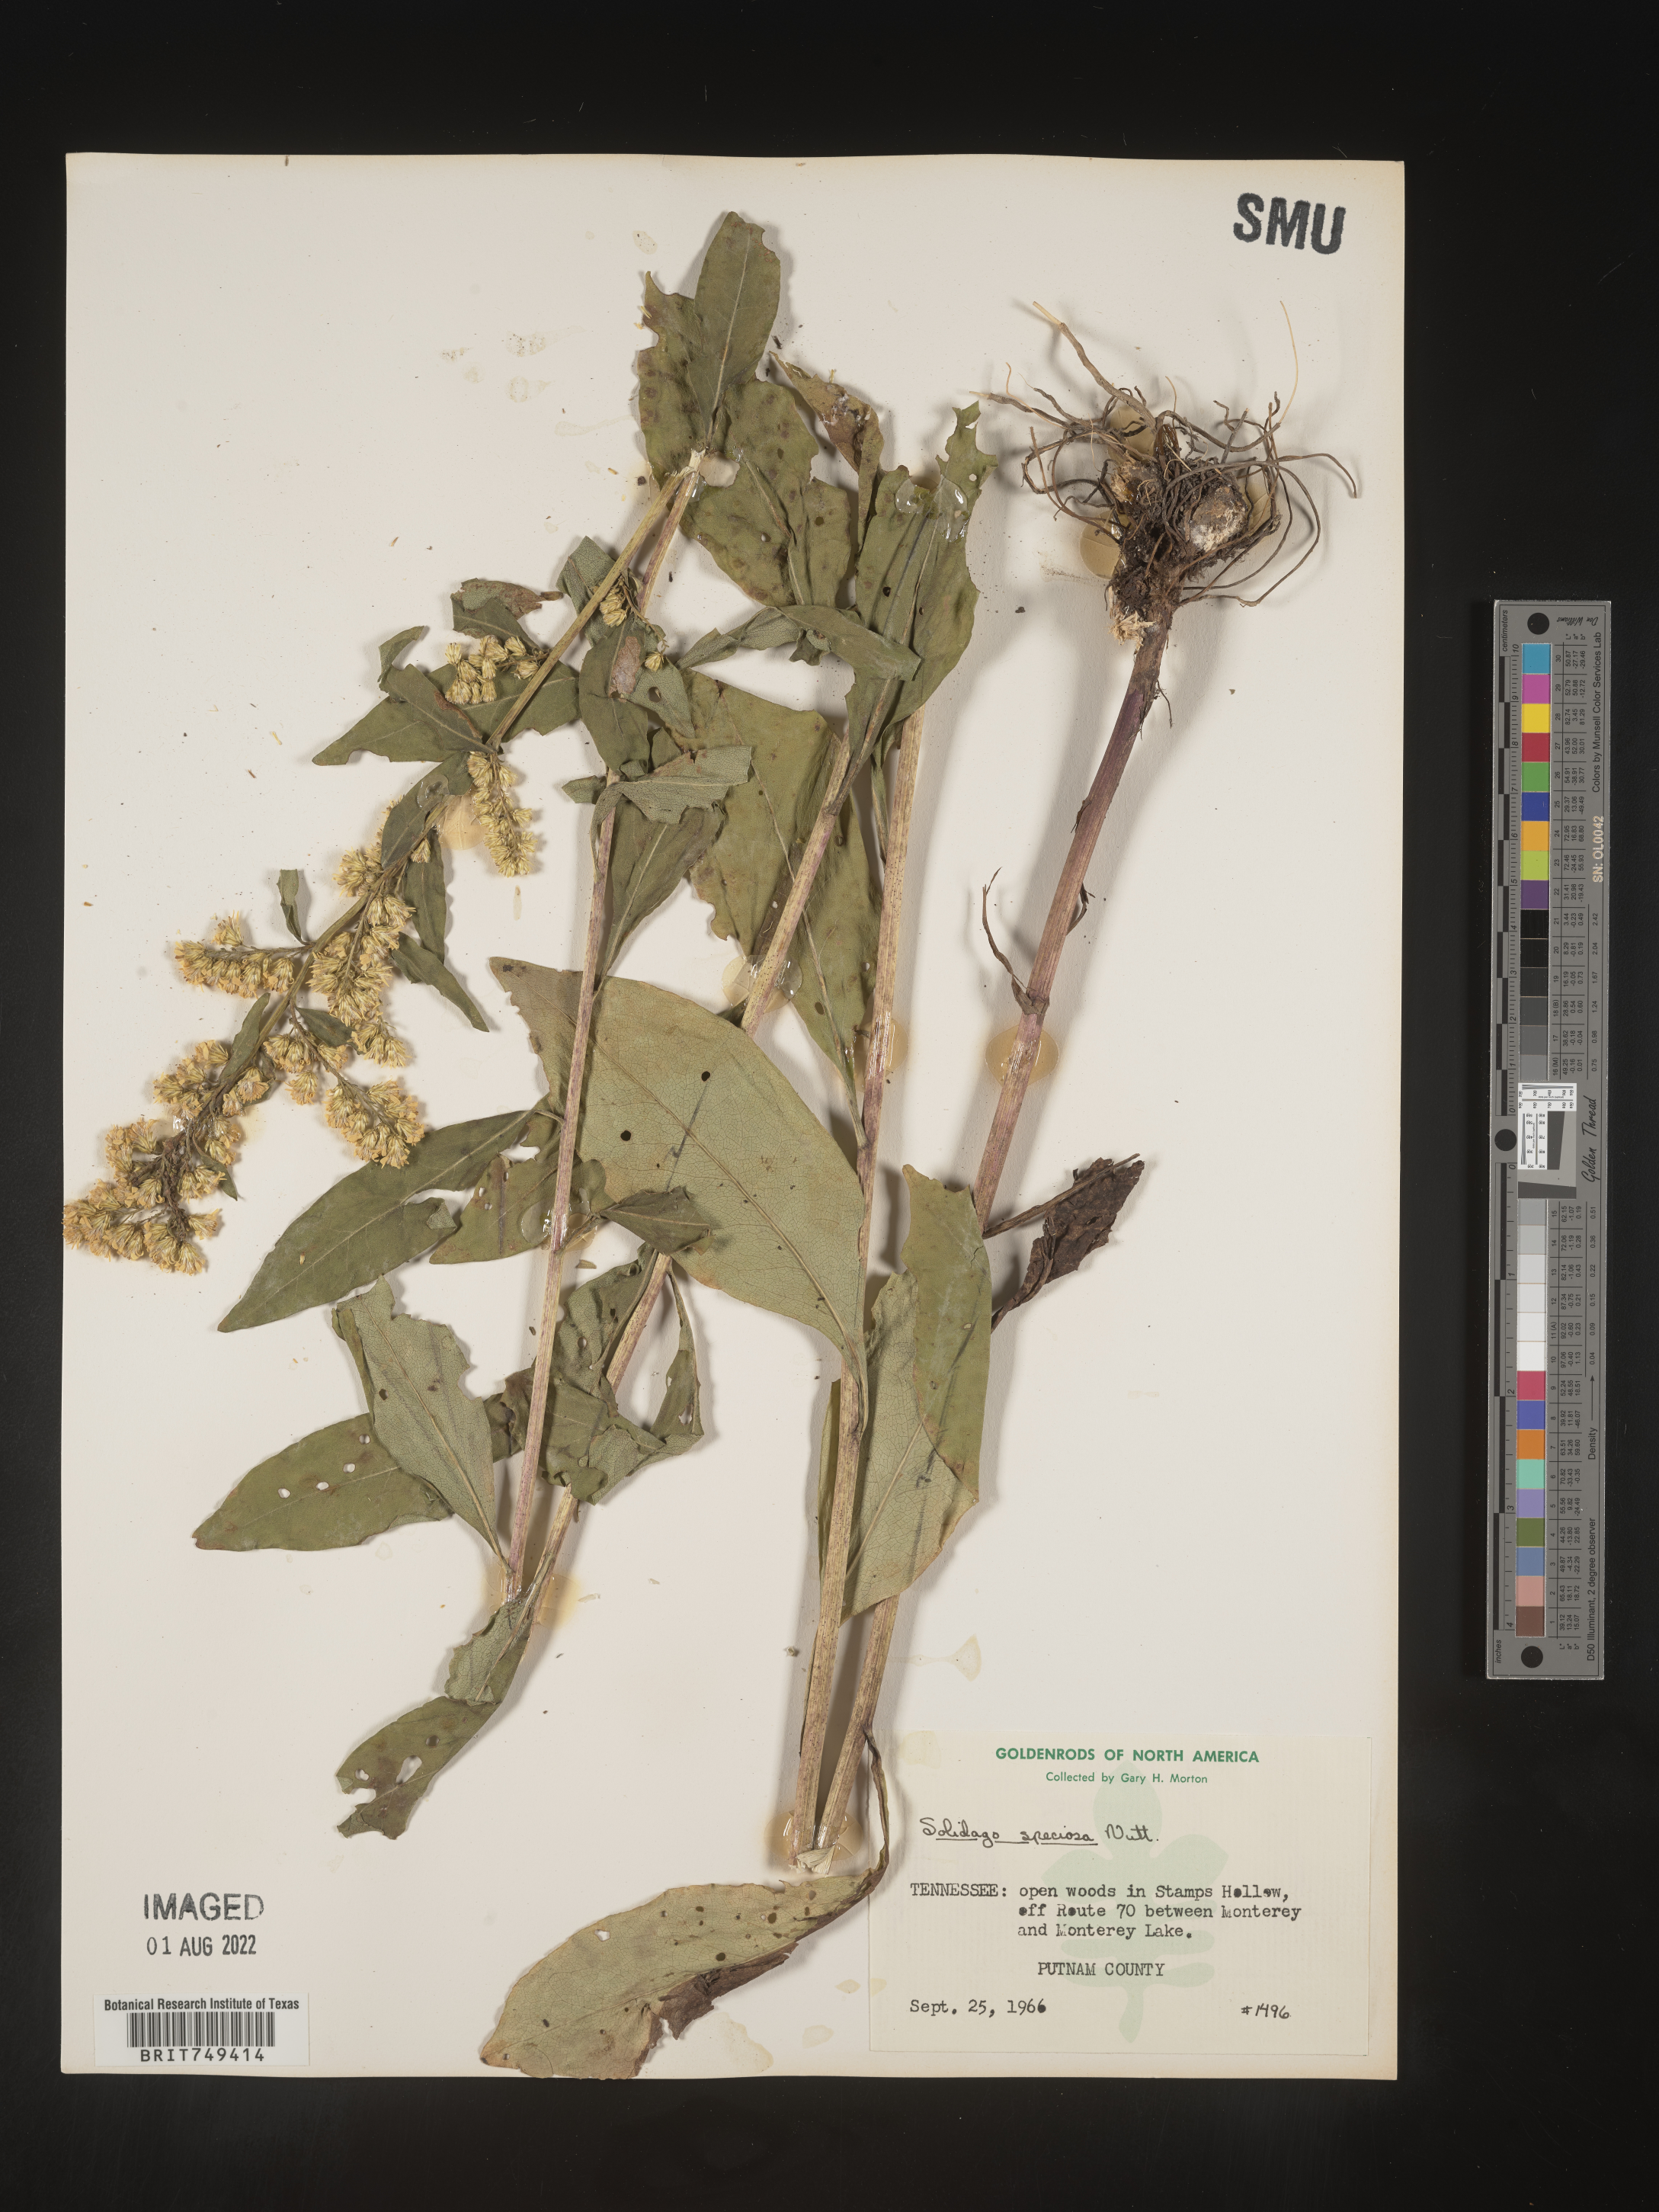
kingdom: Plantae
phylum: Tracheophyta
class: Magnoliopsida
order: Asterales
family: Asteraceae
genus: Solidago
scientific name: Solidago speciosa
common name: Showy goldenrod
